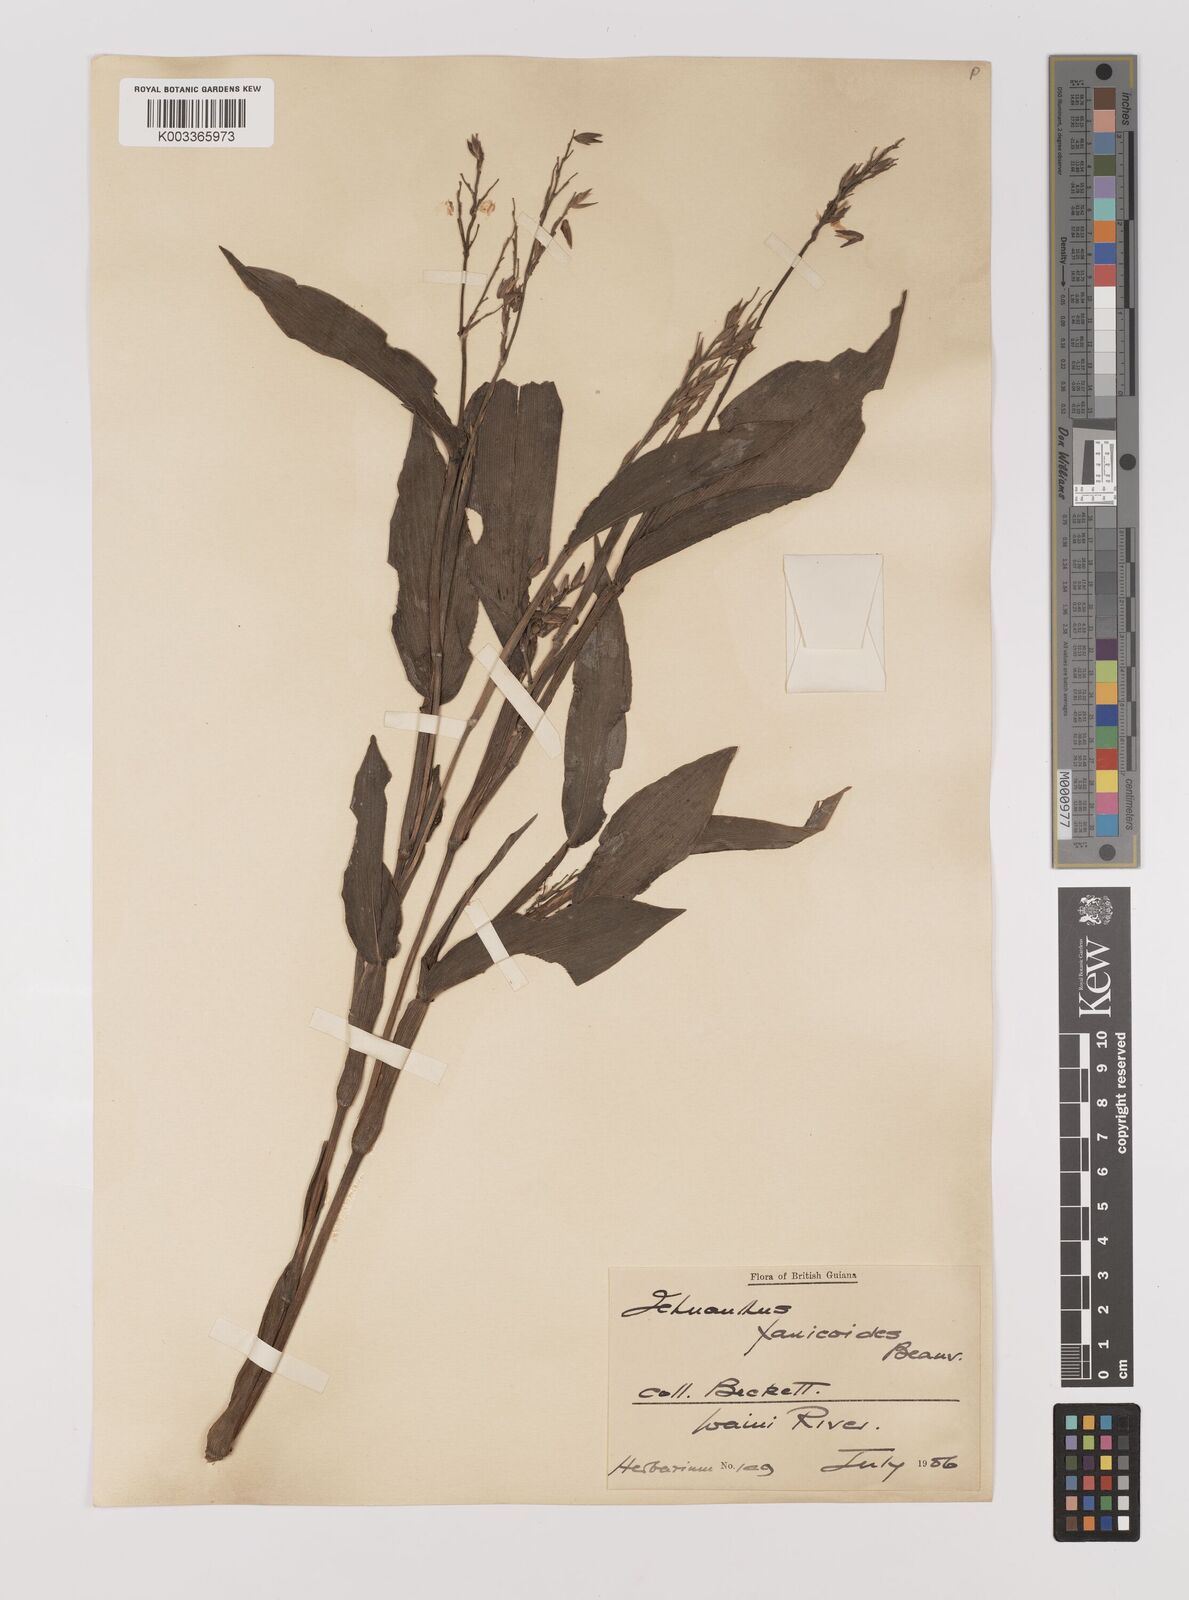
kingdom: Plantae
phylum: Tracheophyta
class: Liliopsida
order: Poales
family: Poaceae
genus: Ichnanthus
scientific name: Ichnanthus panicoides
